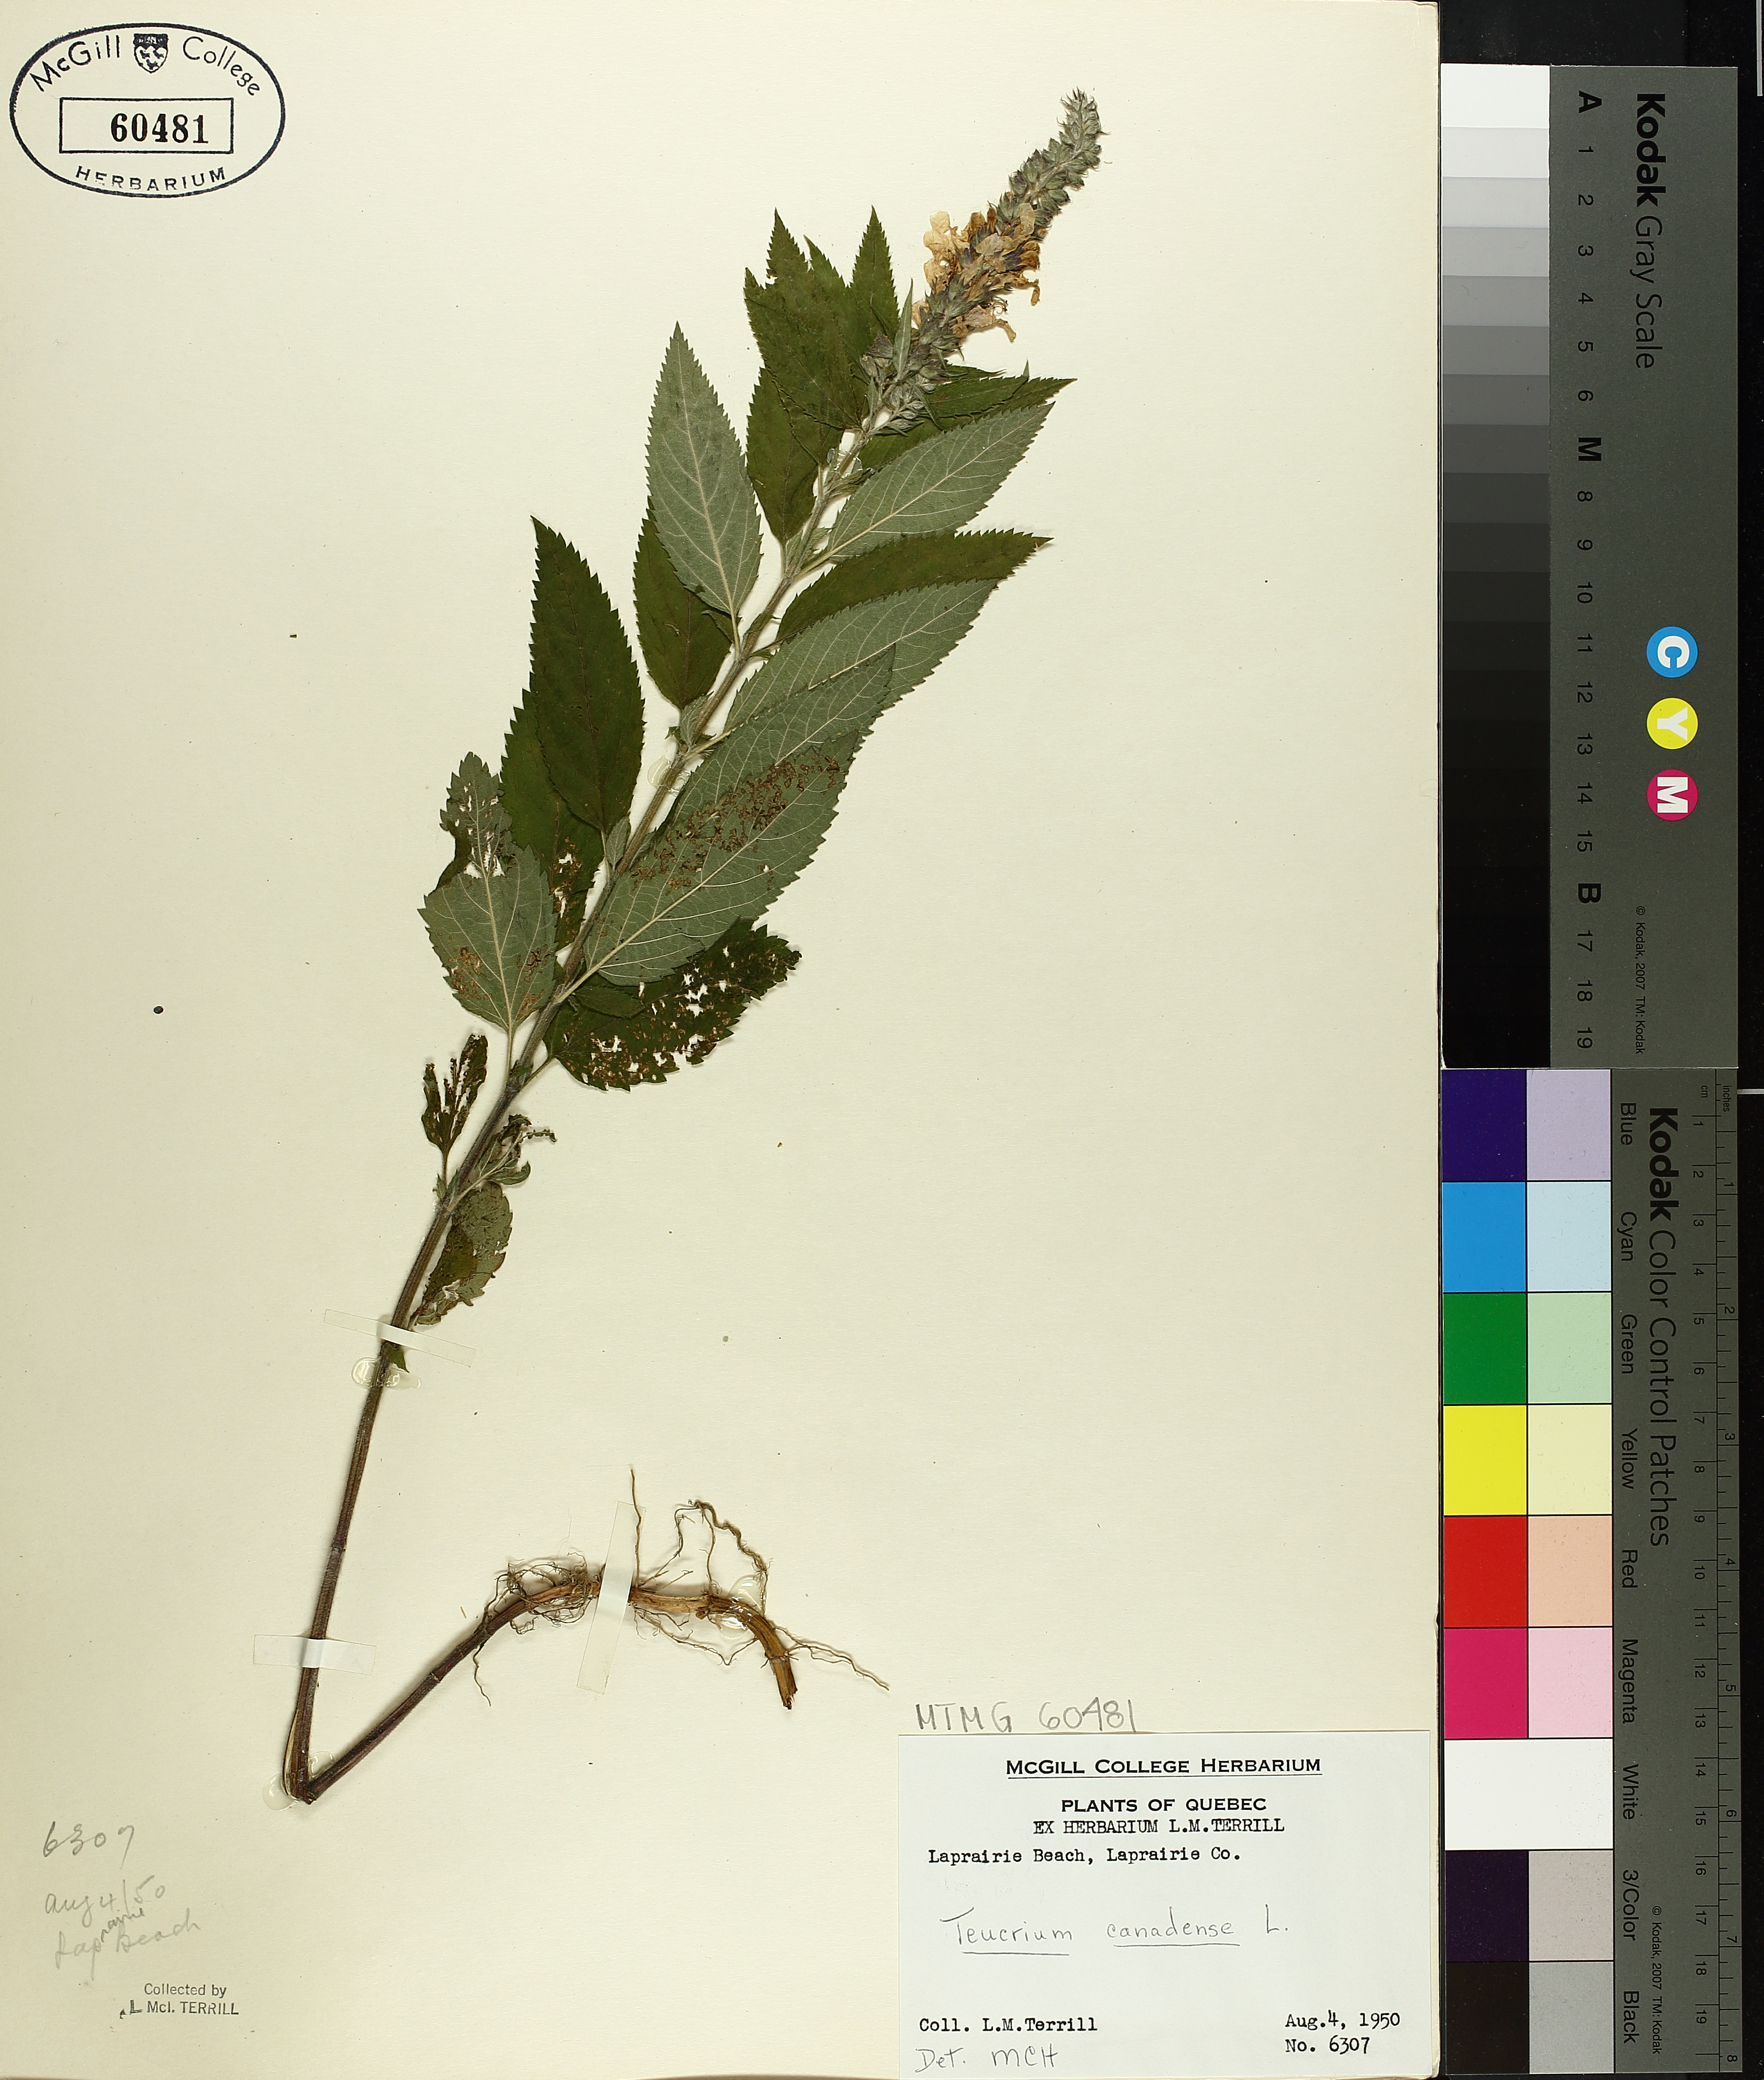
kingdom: Plantae
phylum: Tracheophyta
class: Magnoliopsida
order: Lamiales
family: Lamiaceae
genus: Teucrium
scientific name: Teucrium canadense
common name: American germander
